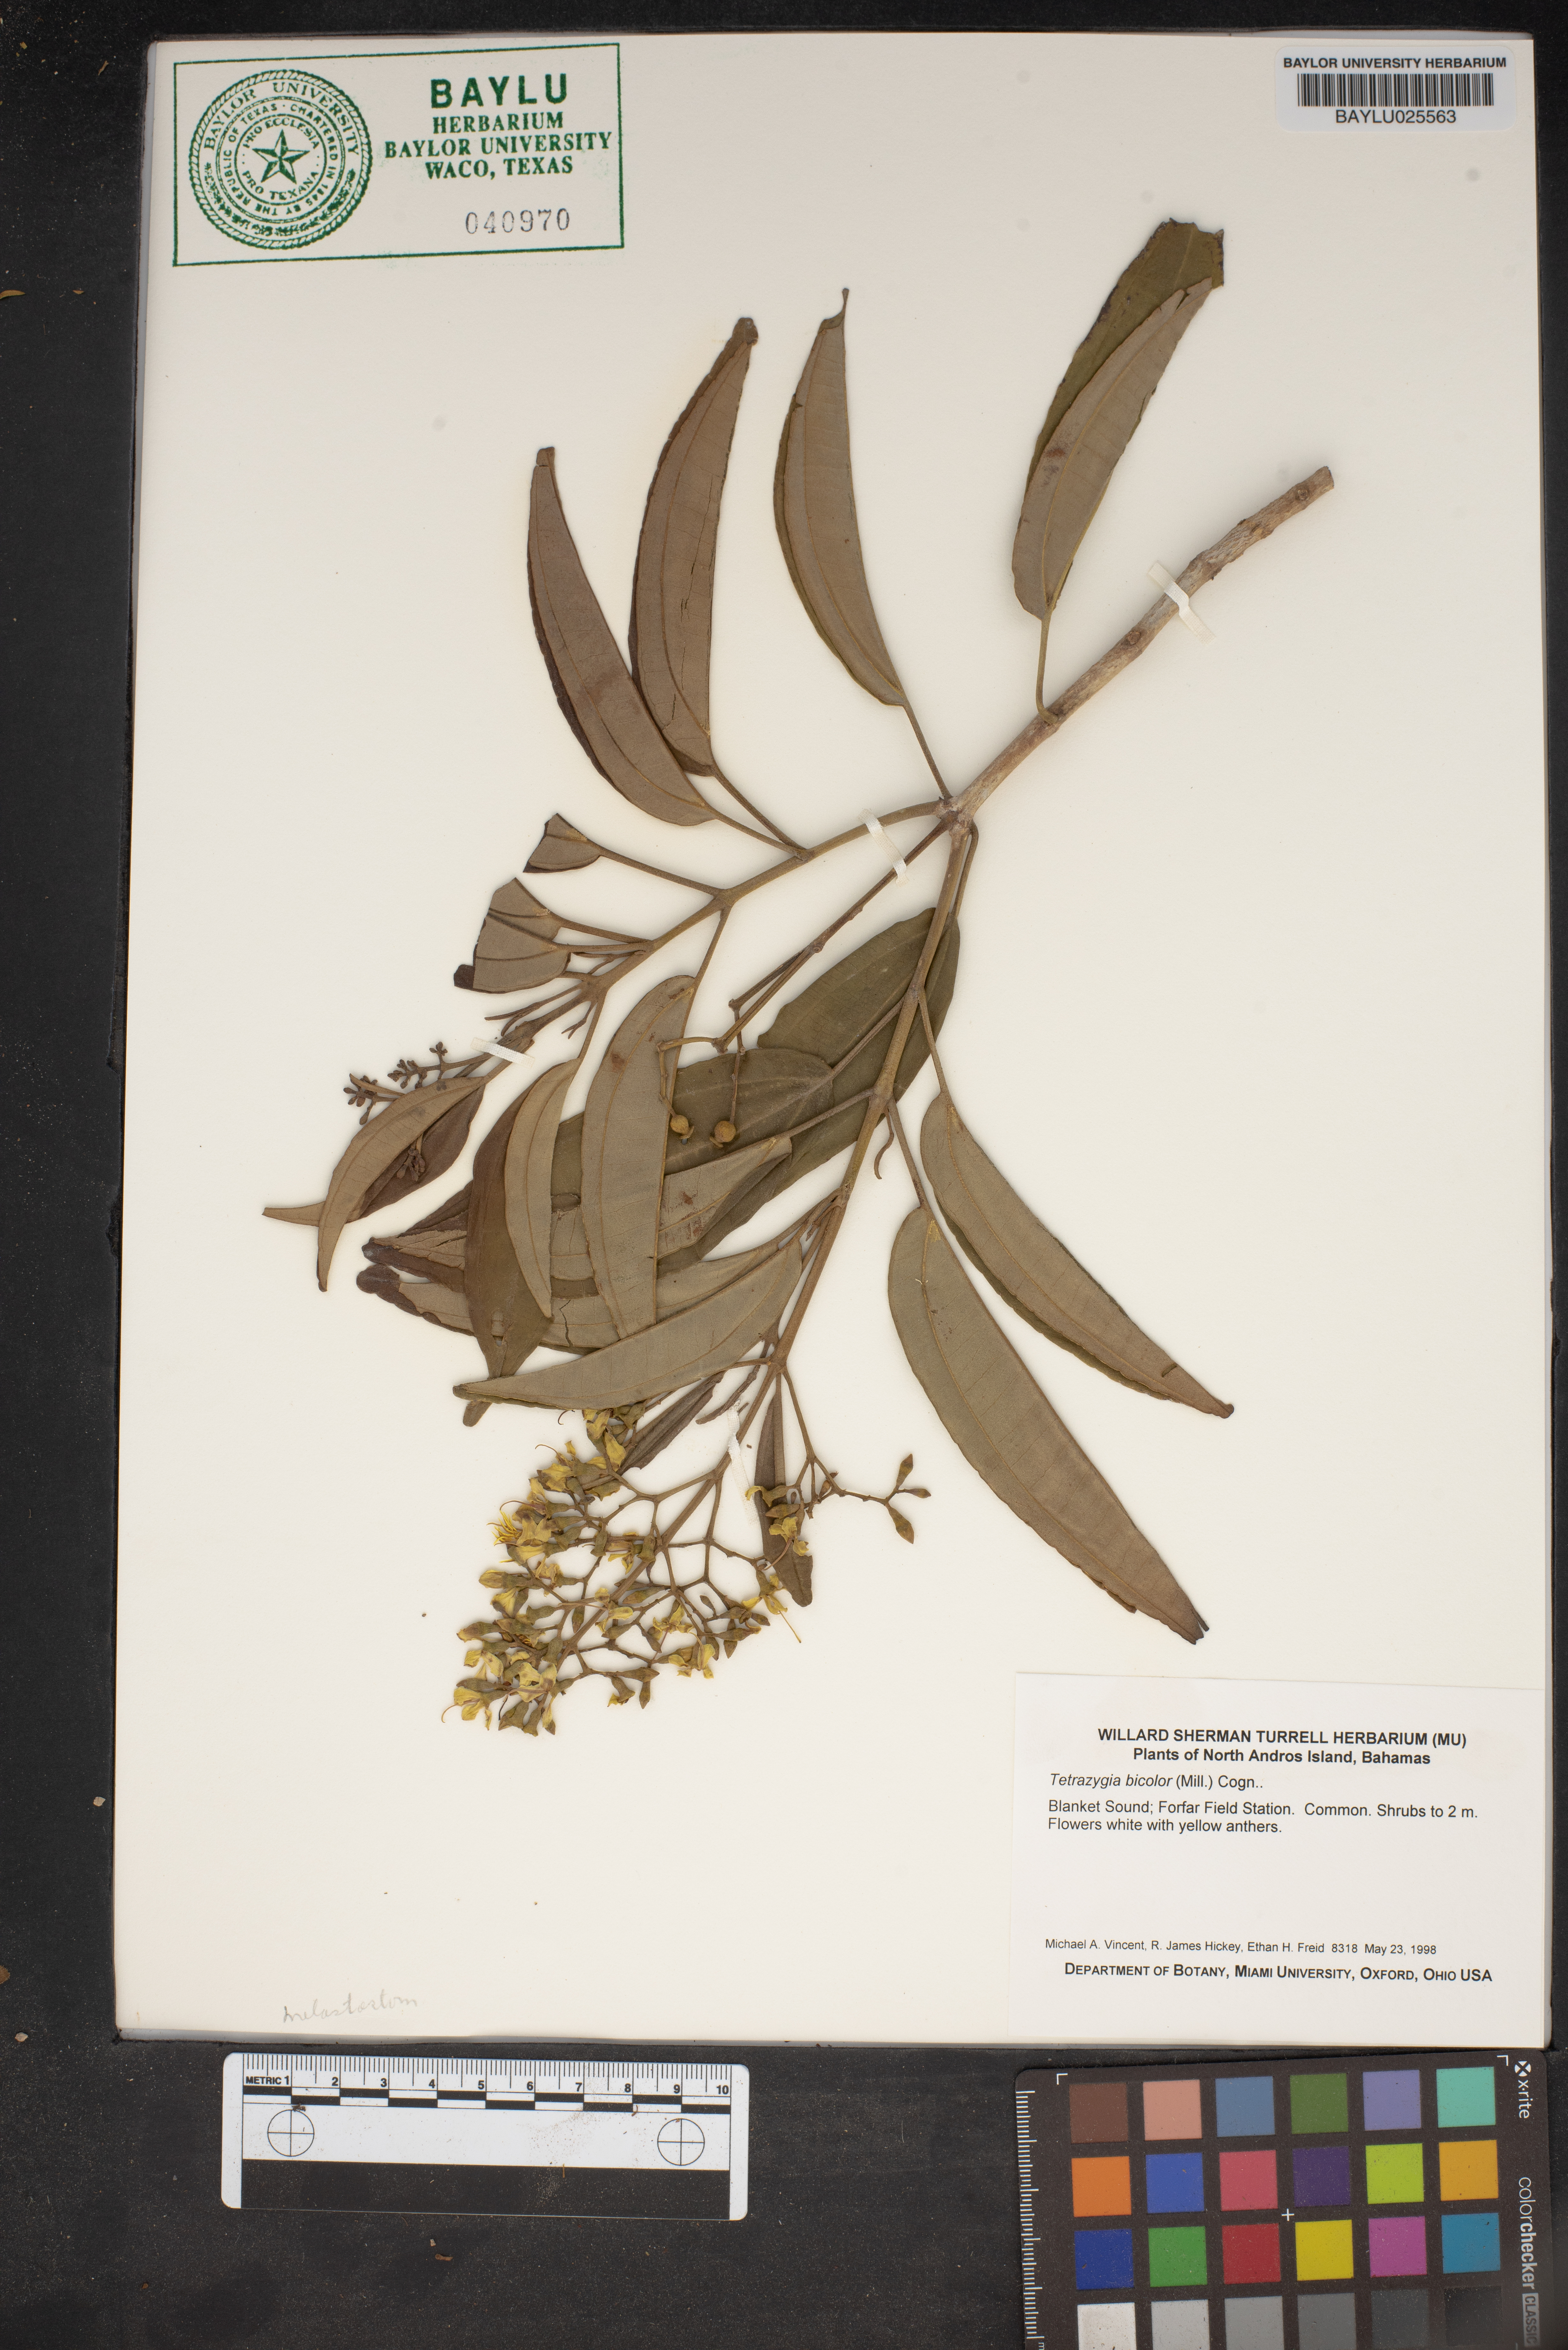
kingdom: Plantae
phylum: Tracheophyta
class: Magnoliopsida
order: Myrtales
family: Melastomataceae
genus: Miconia
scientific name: Miconia bicolor
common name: Johnnyberry
